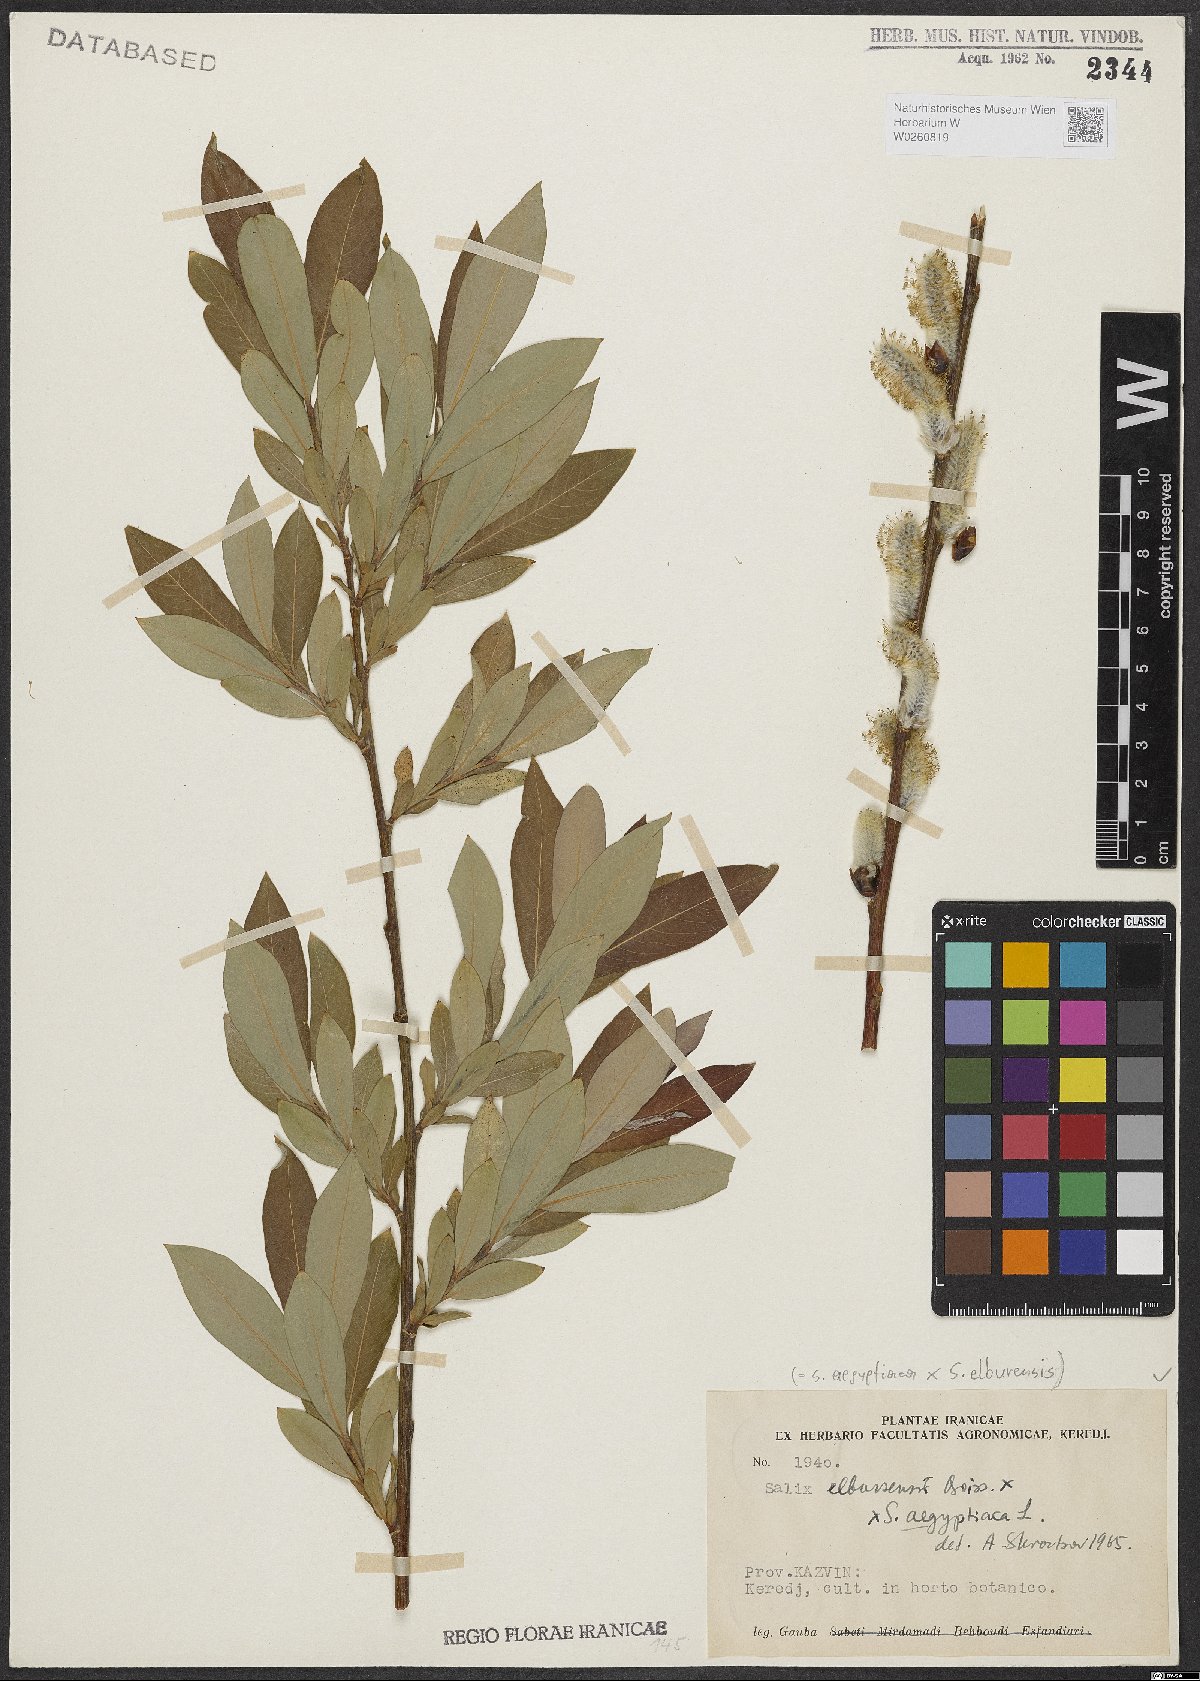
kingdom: Plantae
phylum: Tracheophyta
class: Magnoliopsida
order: Malpighiales
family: Salicaceae
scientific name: Salicaceae
